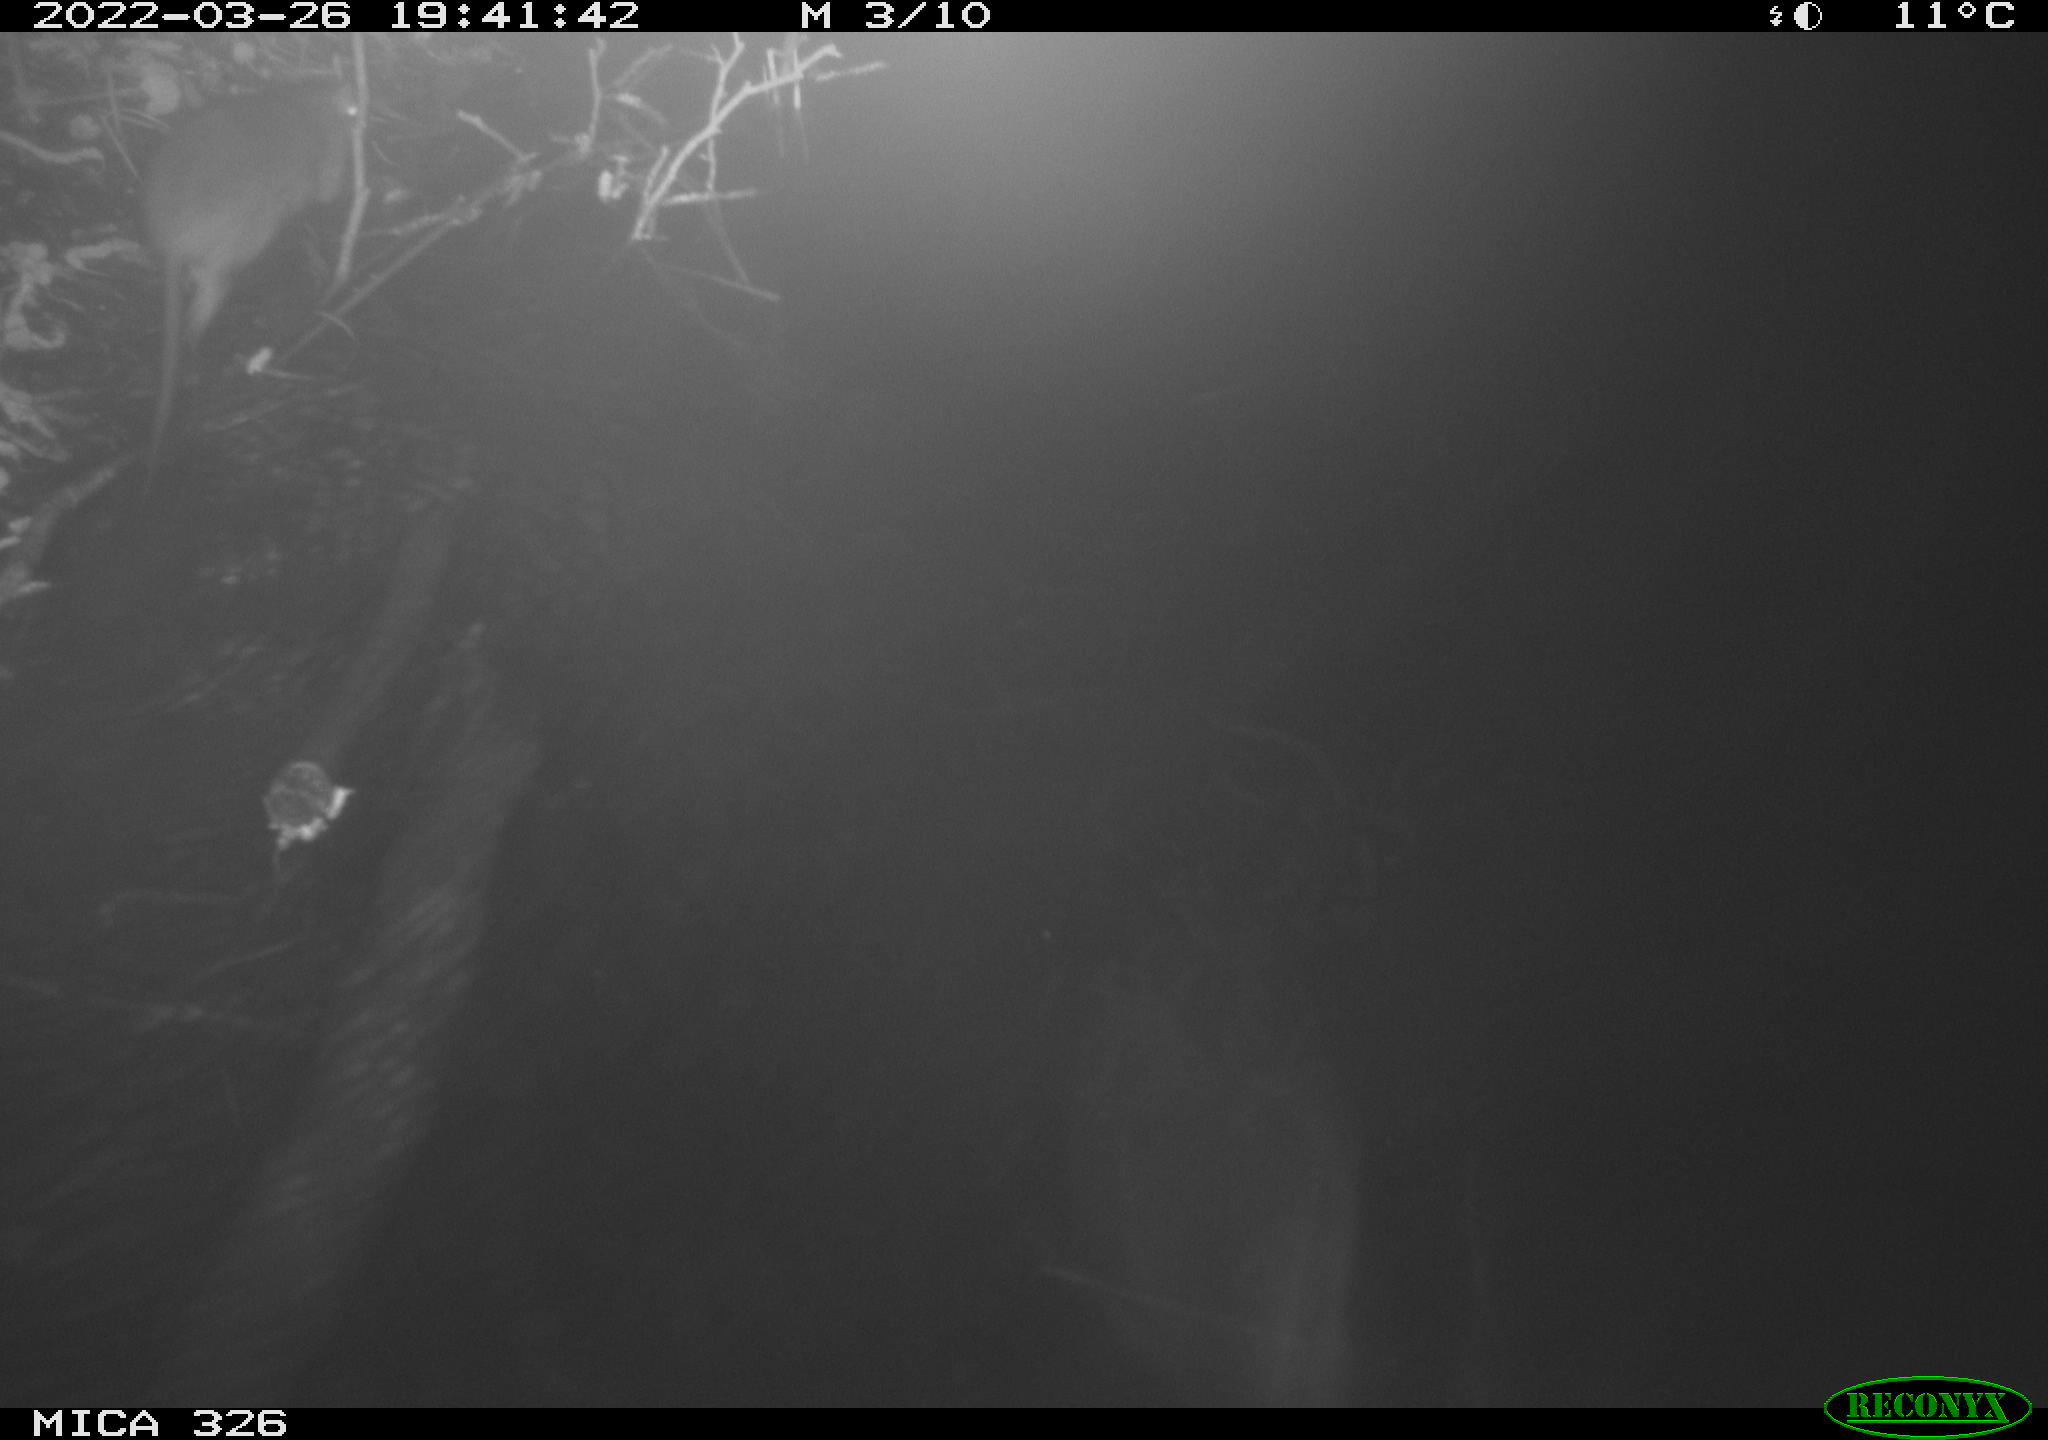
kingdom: Animalia
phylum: Chordata
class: Mammalia
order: Rodentia
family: Muridae
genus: Rattus
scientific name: Rattus norvegicus
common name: Brown rat
